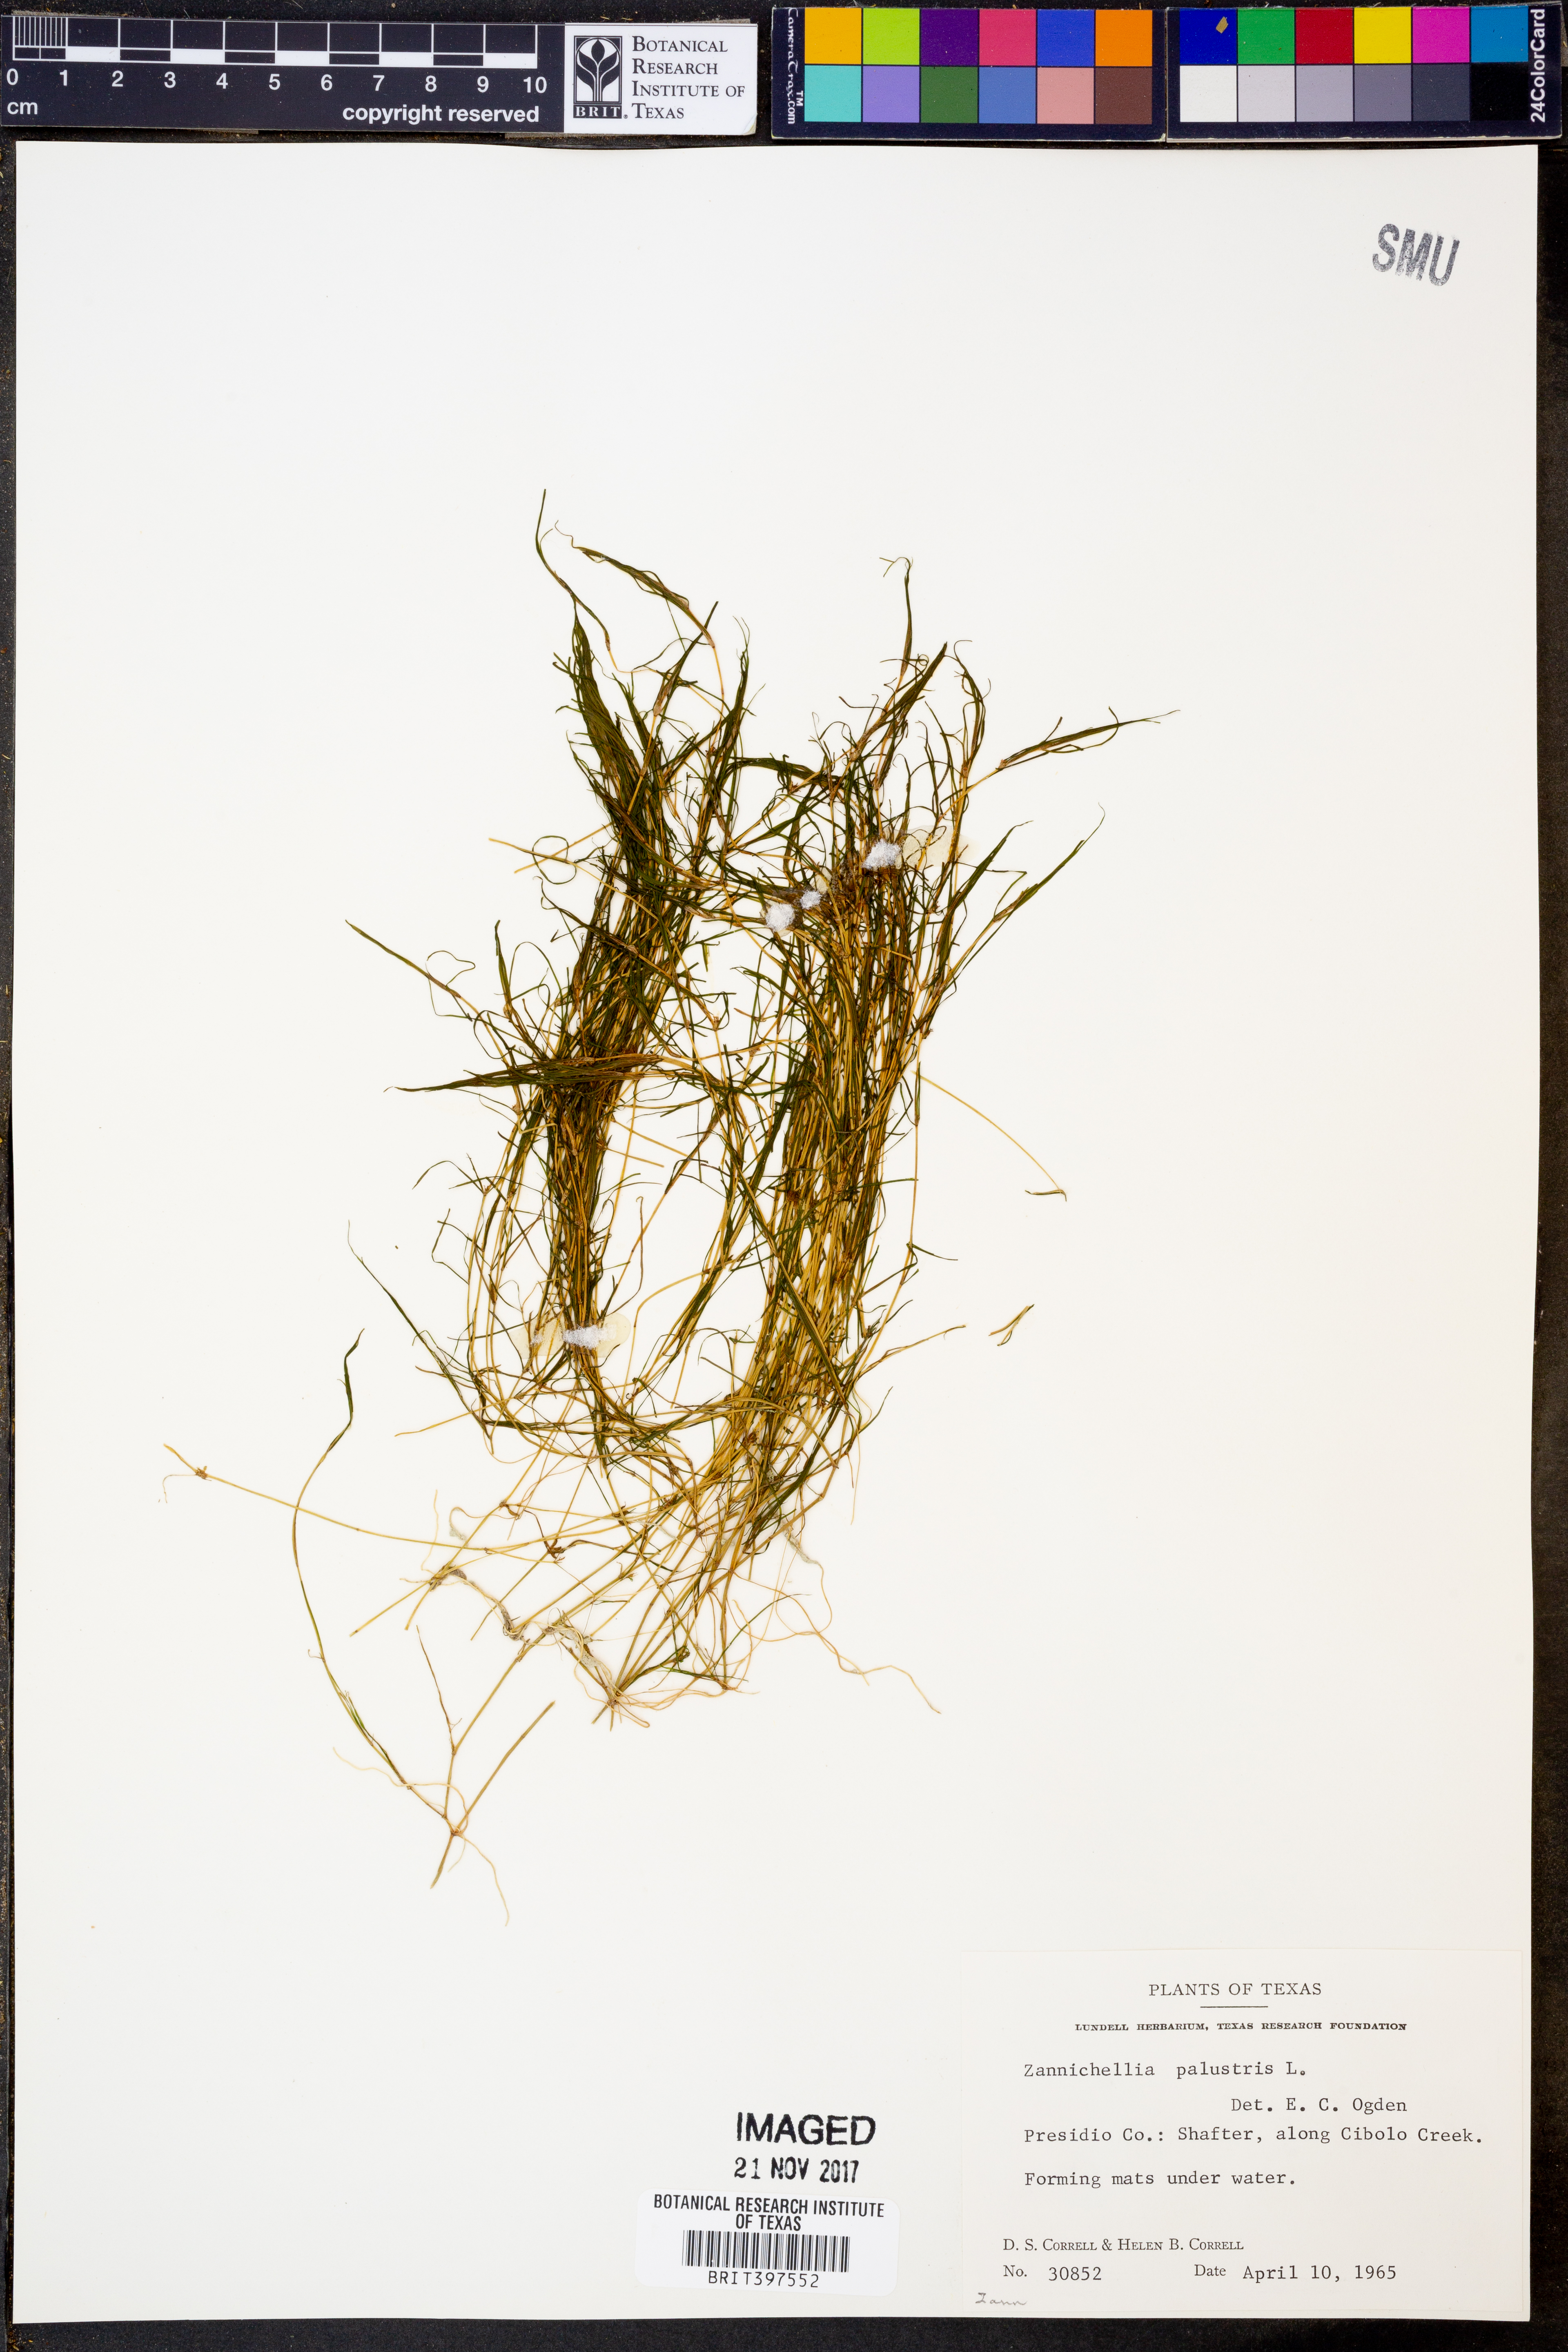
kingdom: Plantae
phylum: Tracheophyta
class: Liliopsida
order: Alismatales
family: Potamogetonaceae
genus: Zannichellia
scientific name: Zannichellia palustris
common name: Horned pondweed
